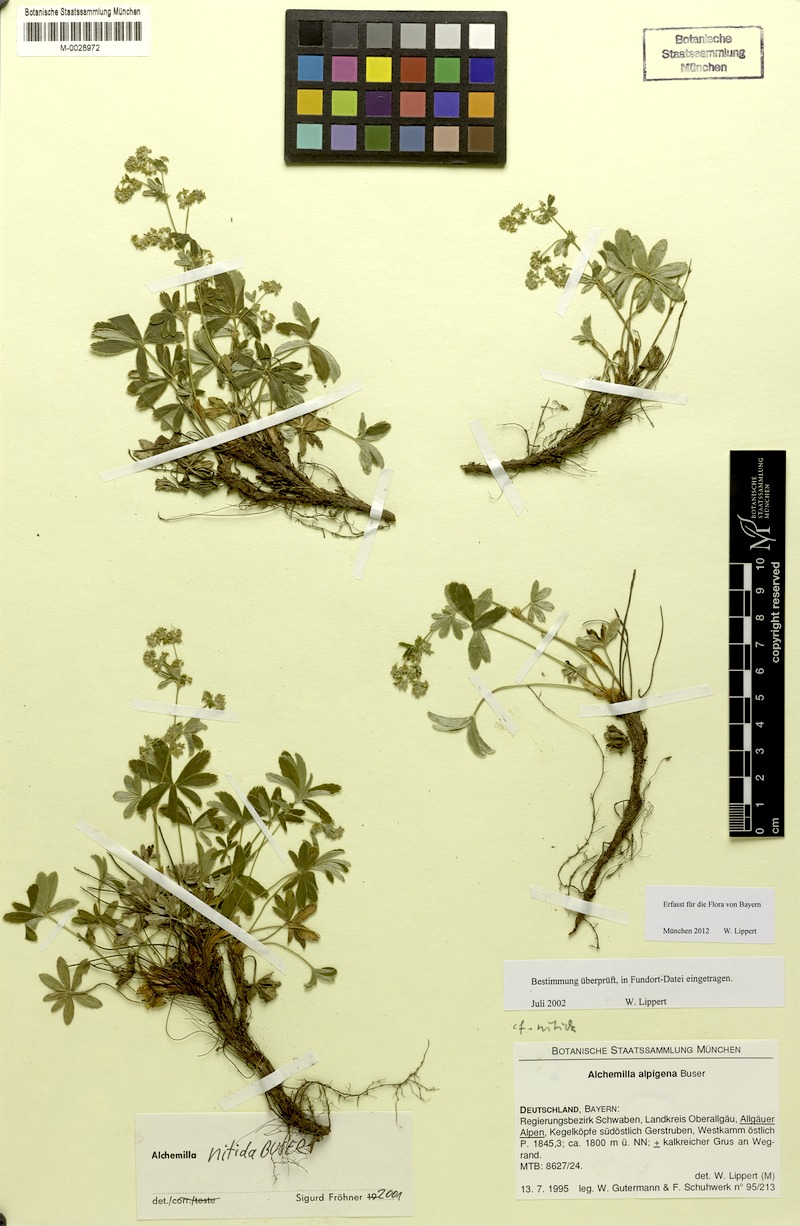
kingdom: Plantae
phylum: Tracheophyta
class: Magnoliopsida
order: Rosales
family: Rosaceae
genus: Alchemilla
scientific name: Alchemilla nitida
